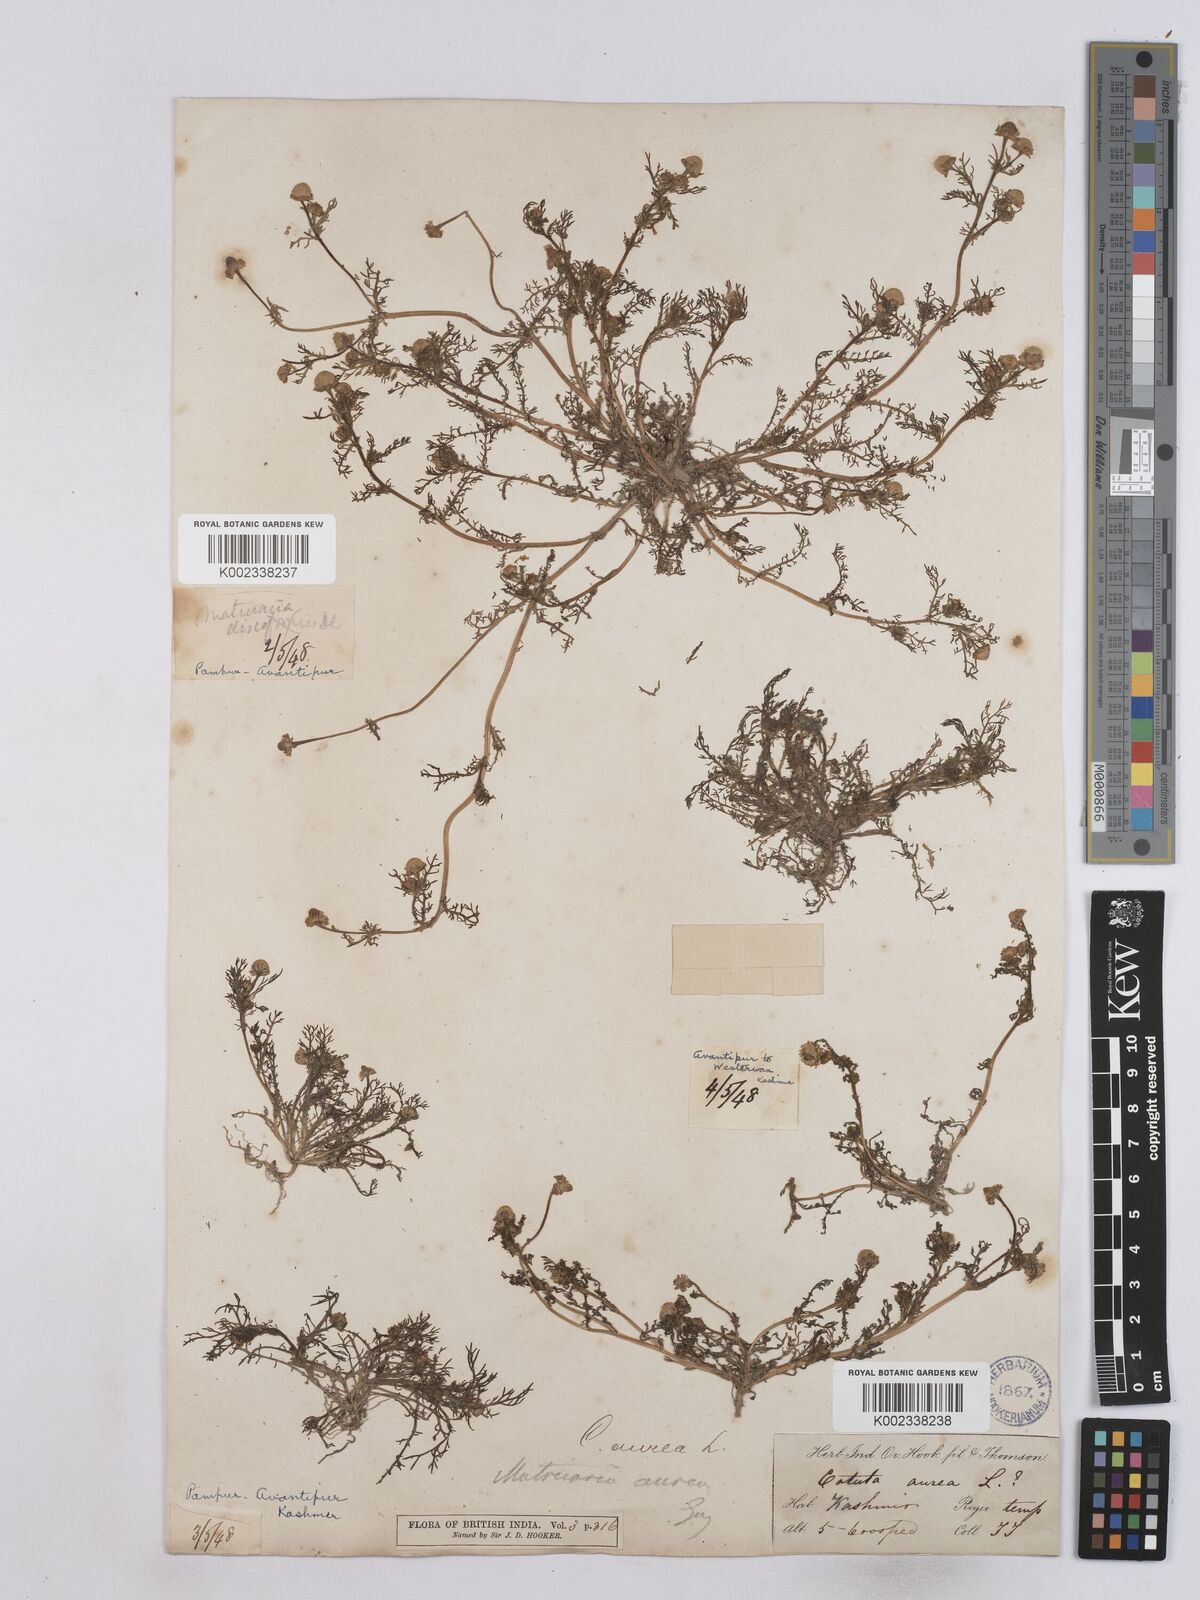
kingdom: Plantae
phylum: Tracheophyta
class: Magnoliopsida
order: Asterales
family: Asteraceae
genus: Matricaria
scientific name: Matricaria aurea
